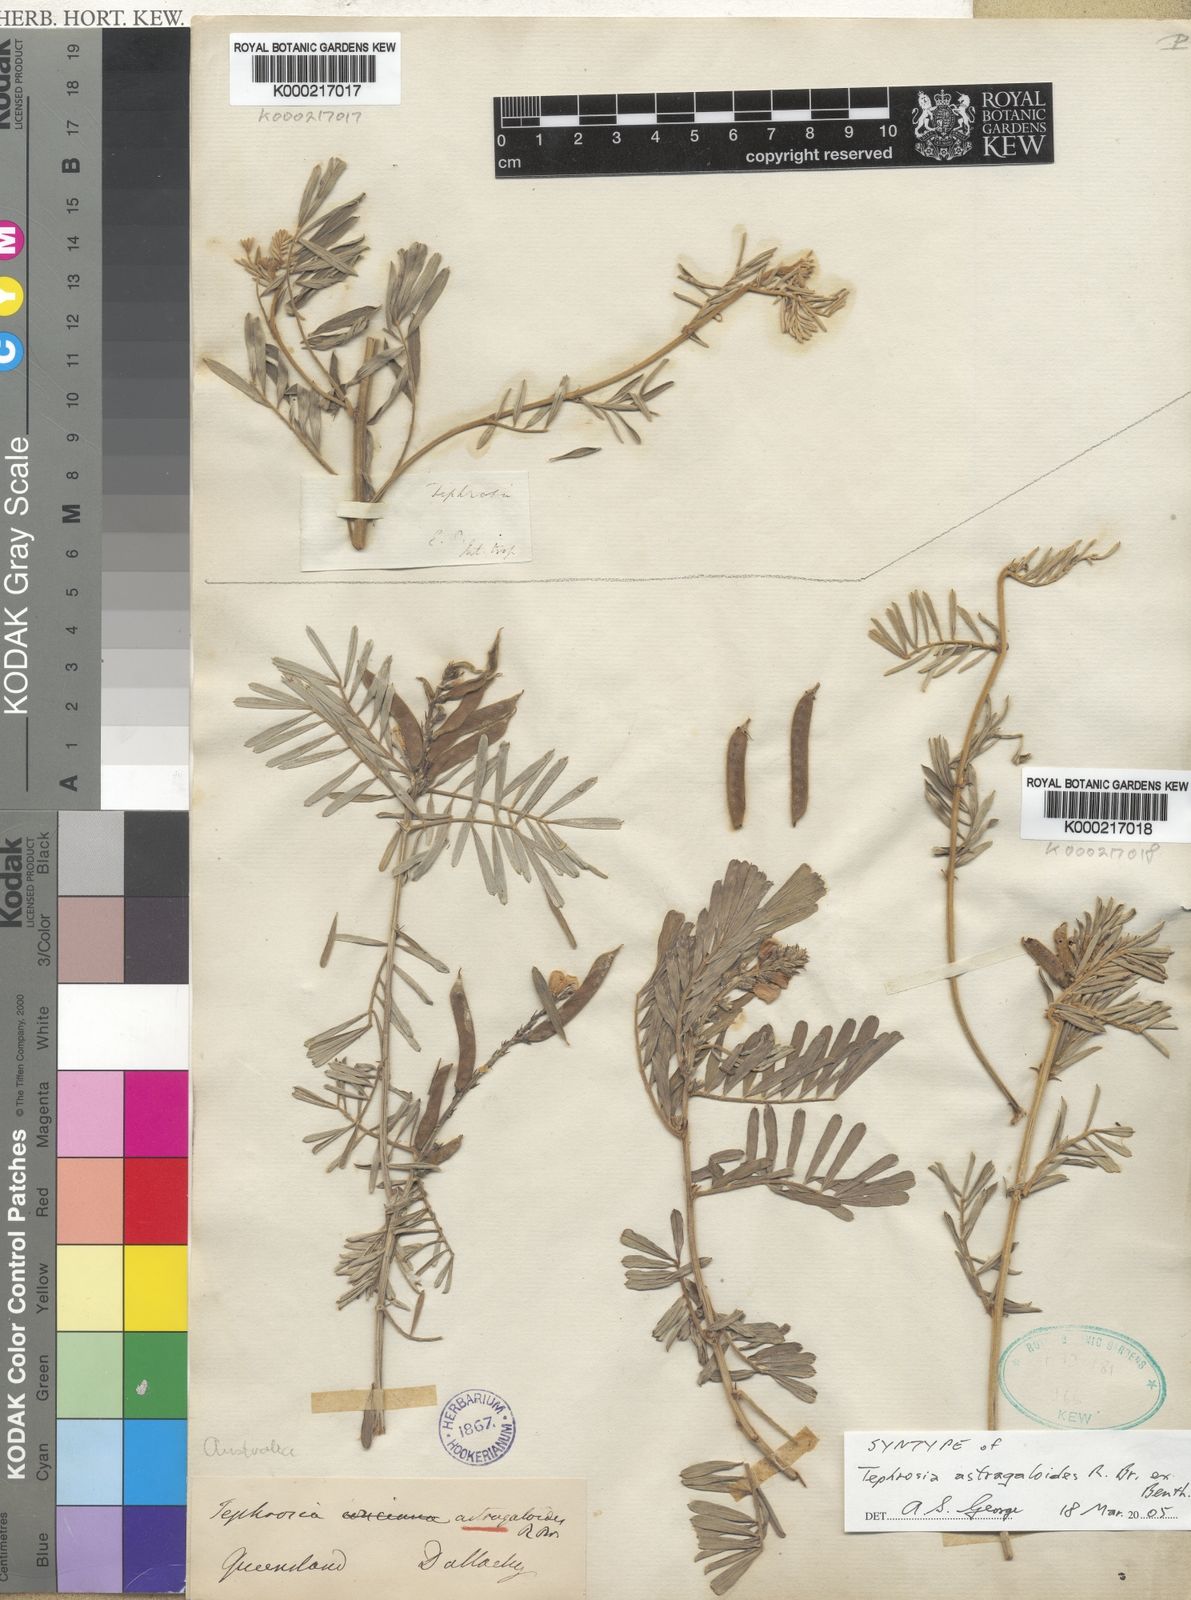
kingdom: Plantae
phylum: Tracheophyta
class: Magnoliopsida
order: Fabales
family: Fabaceae
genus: Tephrosia
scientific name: Tephrosia
